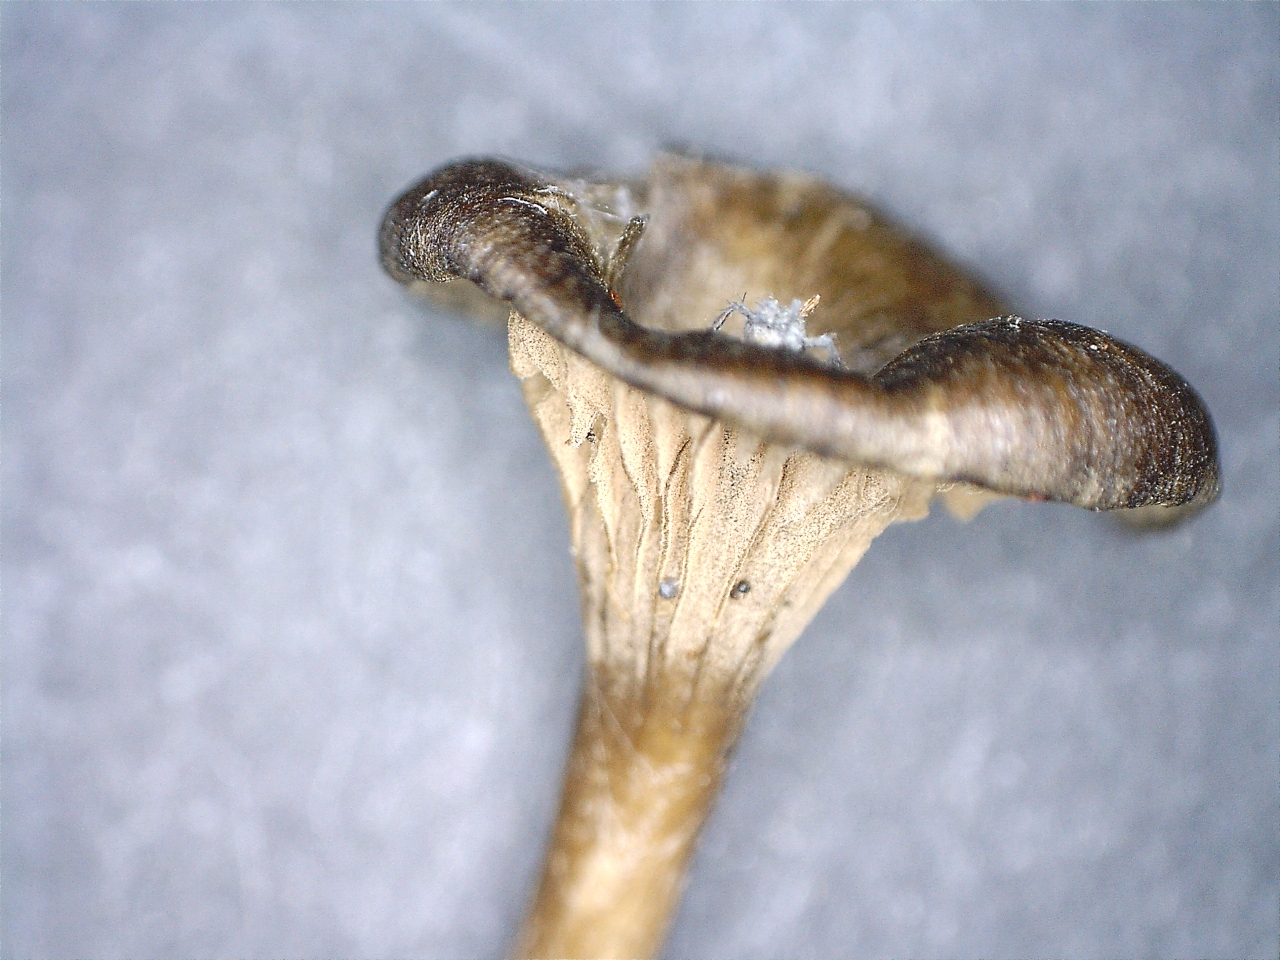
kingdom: Fungi
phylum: Basidiomycota
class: Agaricomycetes
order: Agaricales
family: Entolomataceae
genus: Entoloma
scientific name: Entoloma
